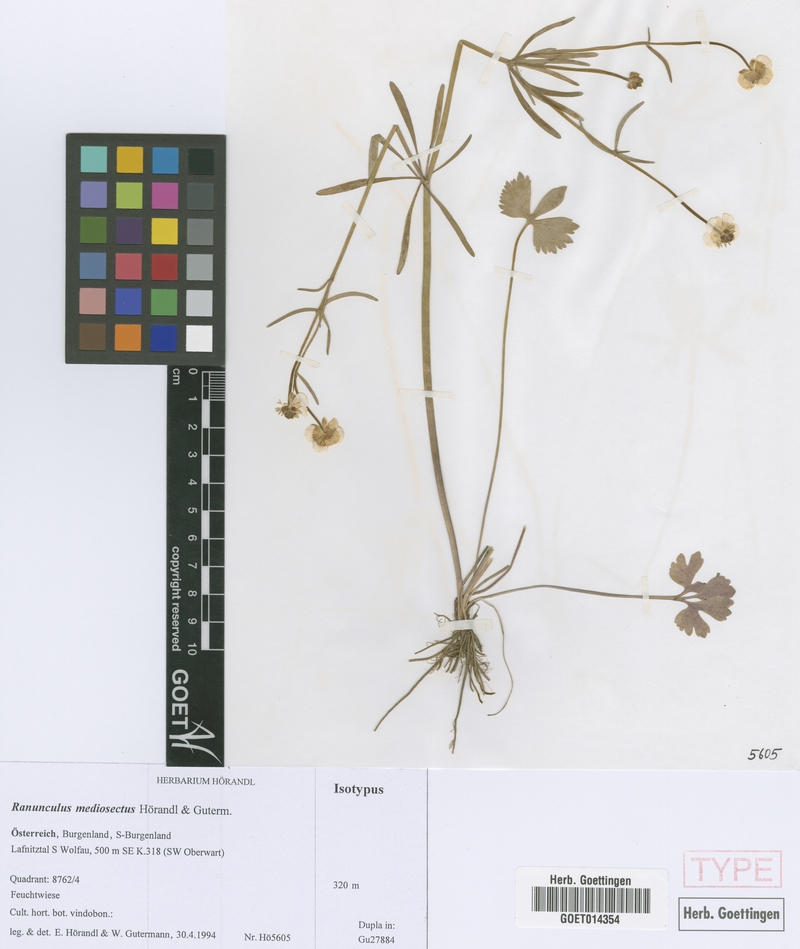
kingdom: Plantae
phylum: Tracheophyta
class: Magnoliopsida
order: Ranunculales
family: Ranunculaceae
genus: Ranunculus
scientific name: Ranunculus mediosectus
